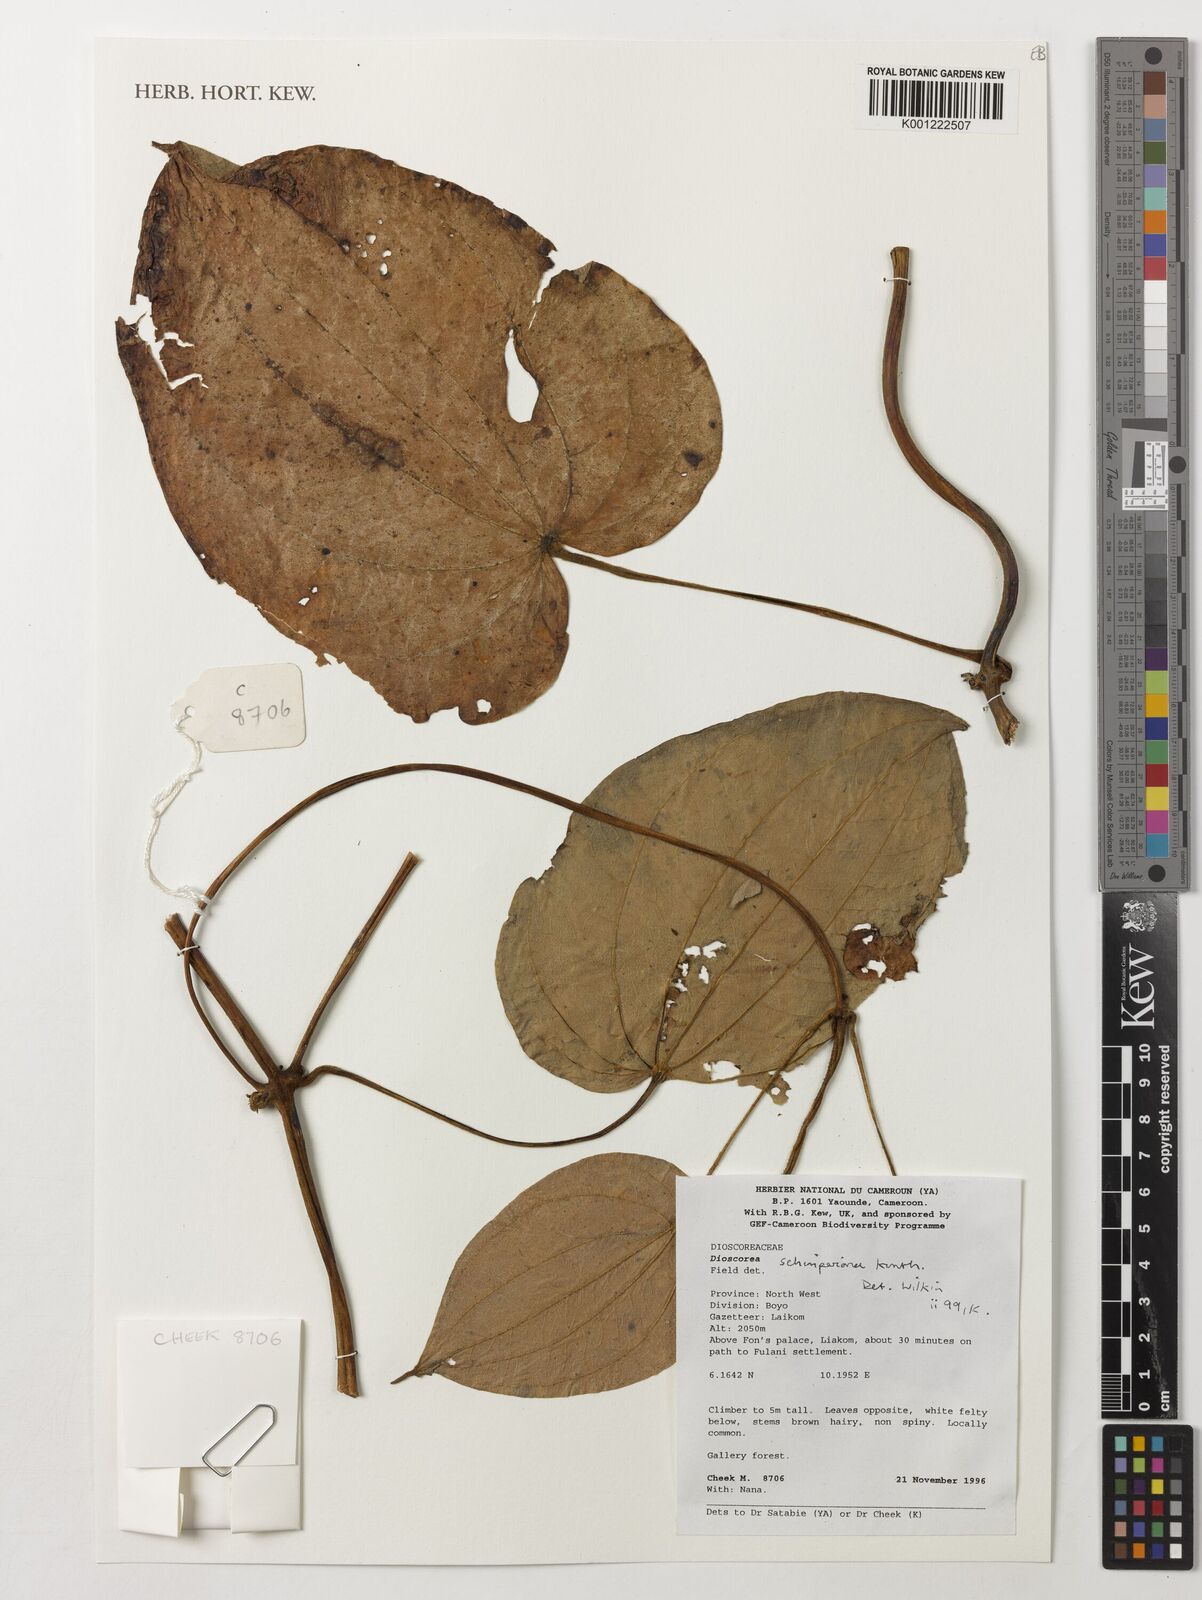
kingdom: Plantae
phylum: Tracheophyta
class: Liliopsida
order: Dioscoreales
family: Dioscoreaceae
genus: Dioscorea
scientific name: Dioscorea schimperiana
